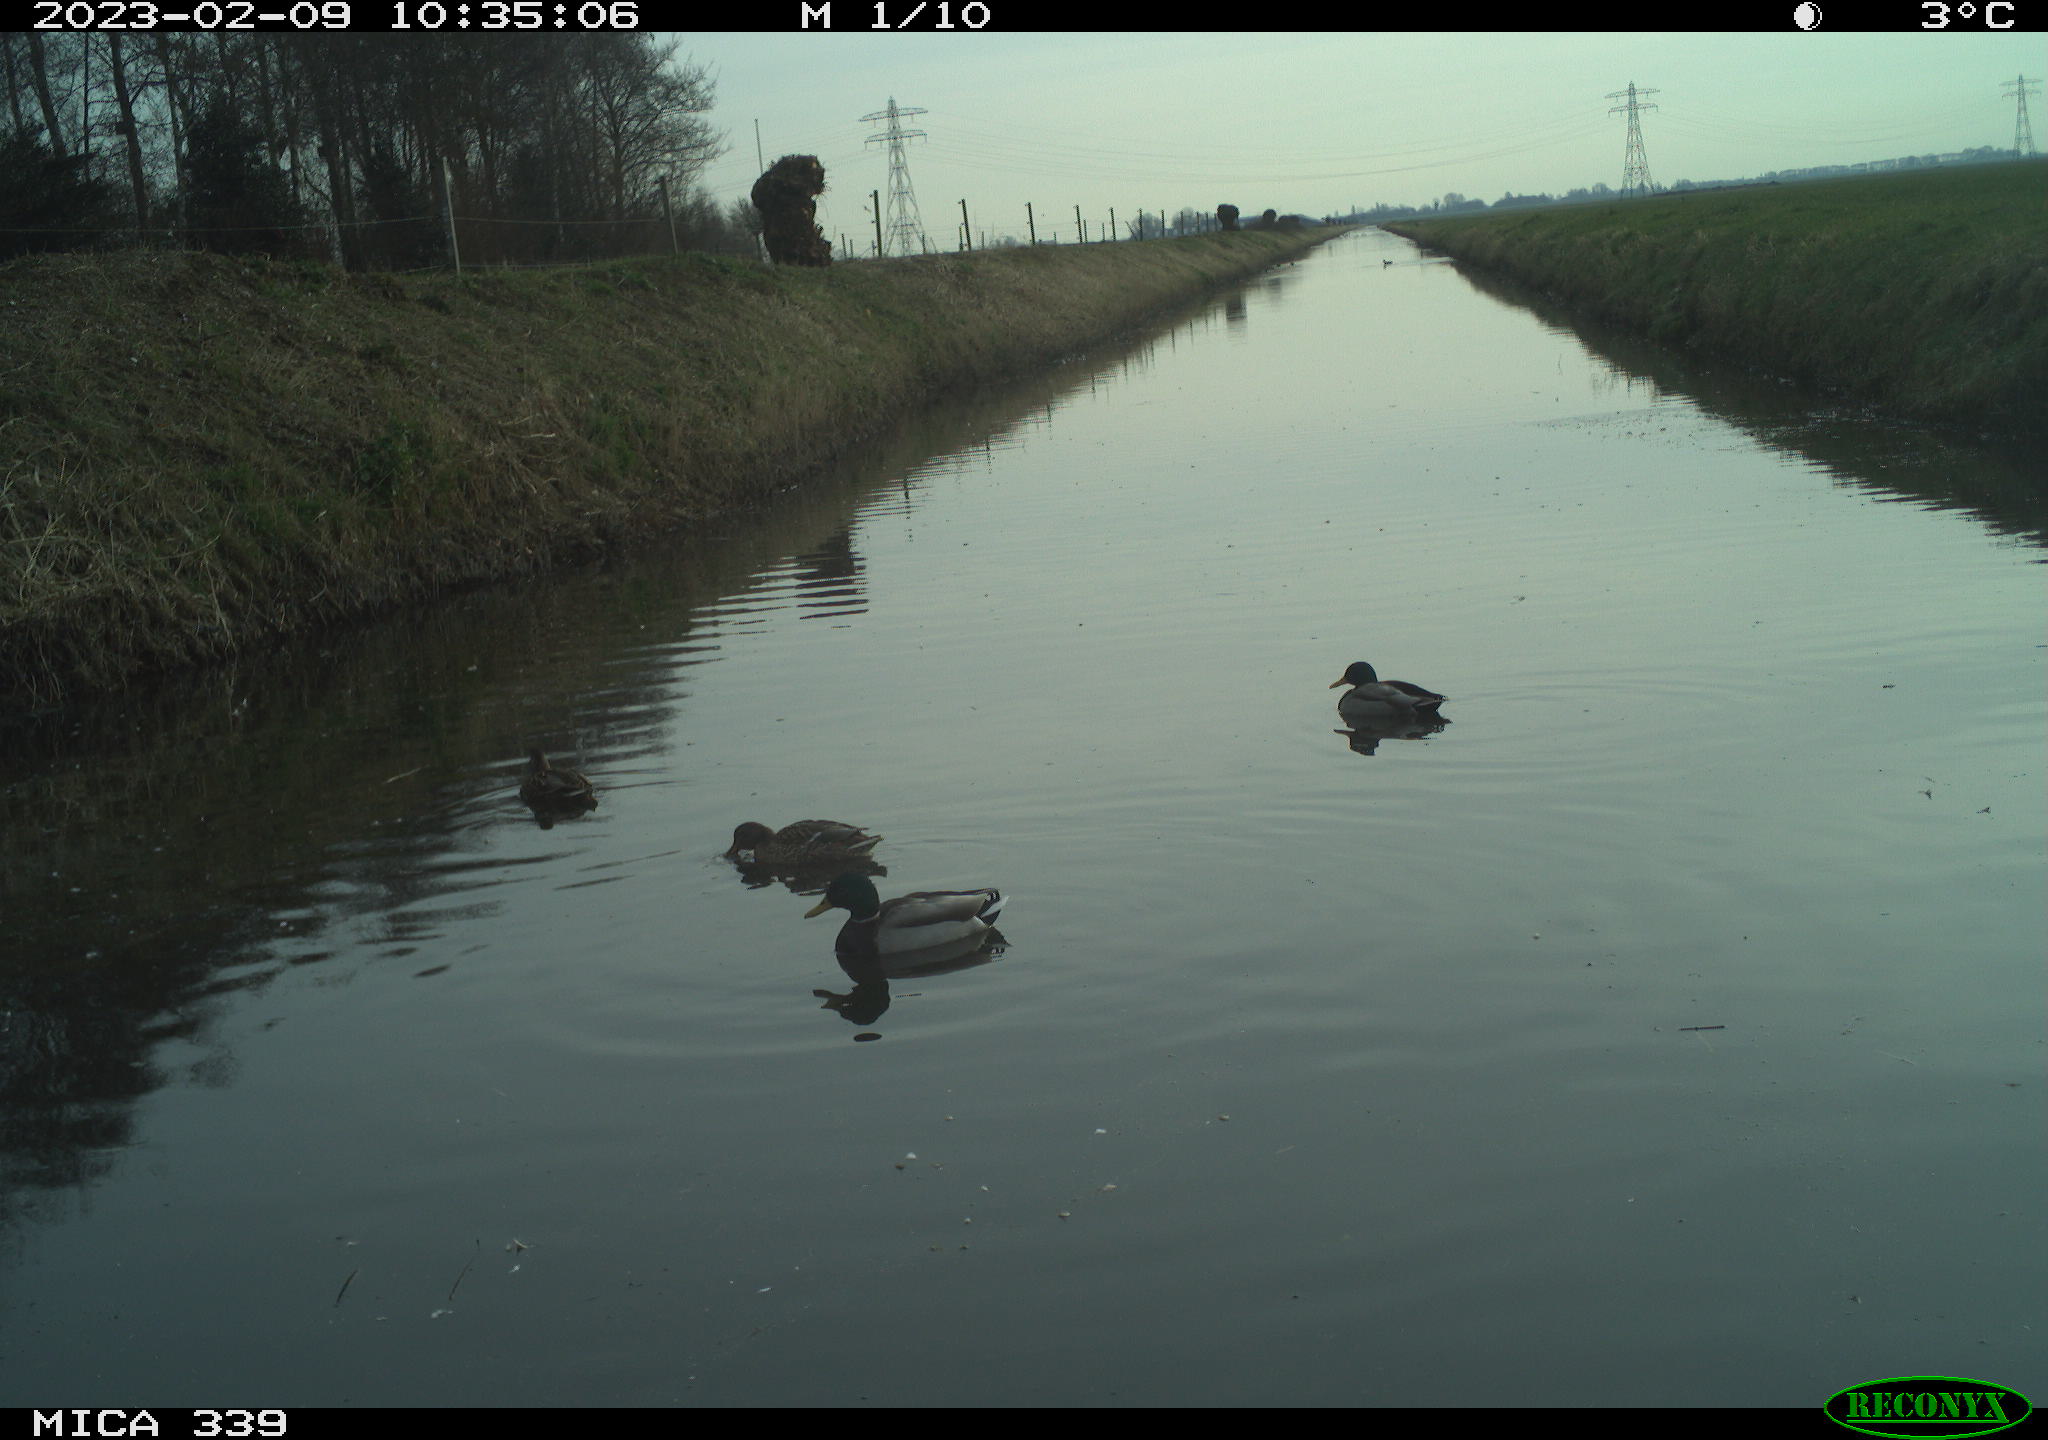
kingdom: Animalia
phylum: Chordata
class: Aves
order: Anseriformes
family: Anatidae
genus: Anas
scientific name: Anas
